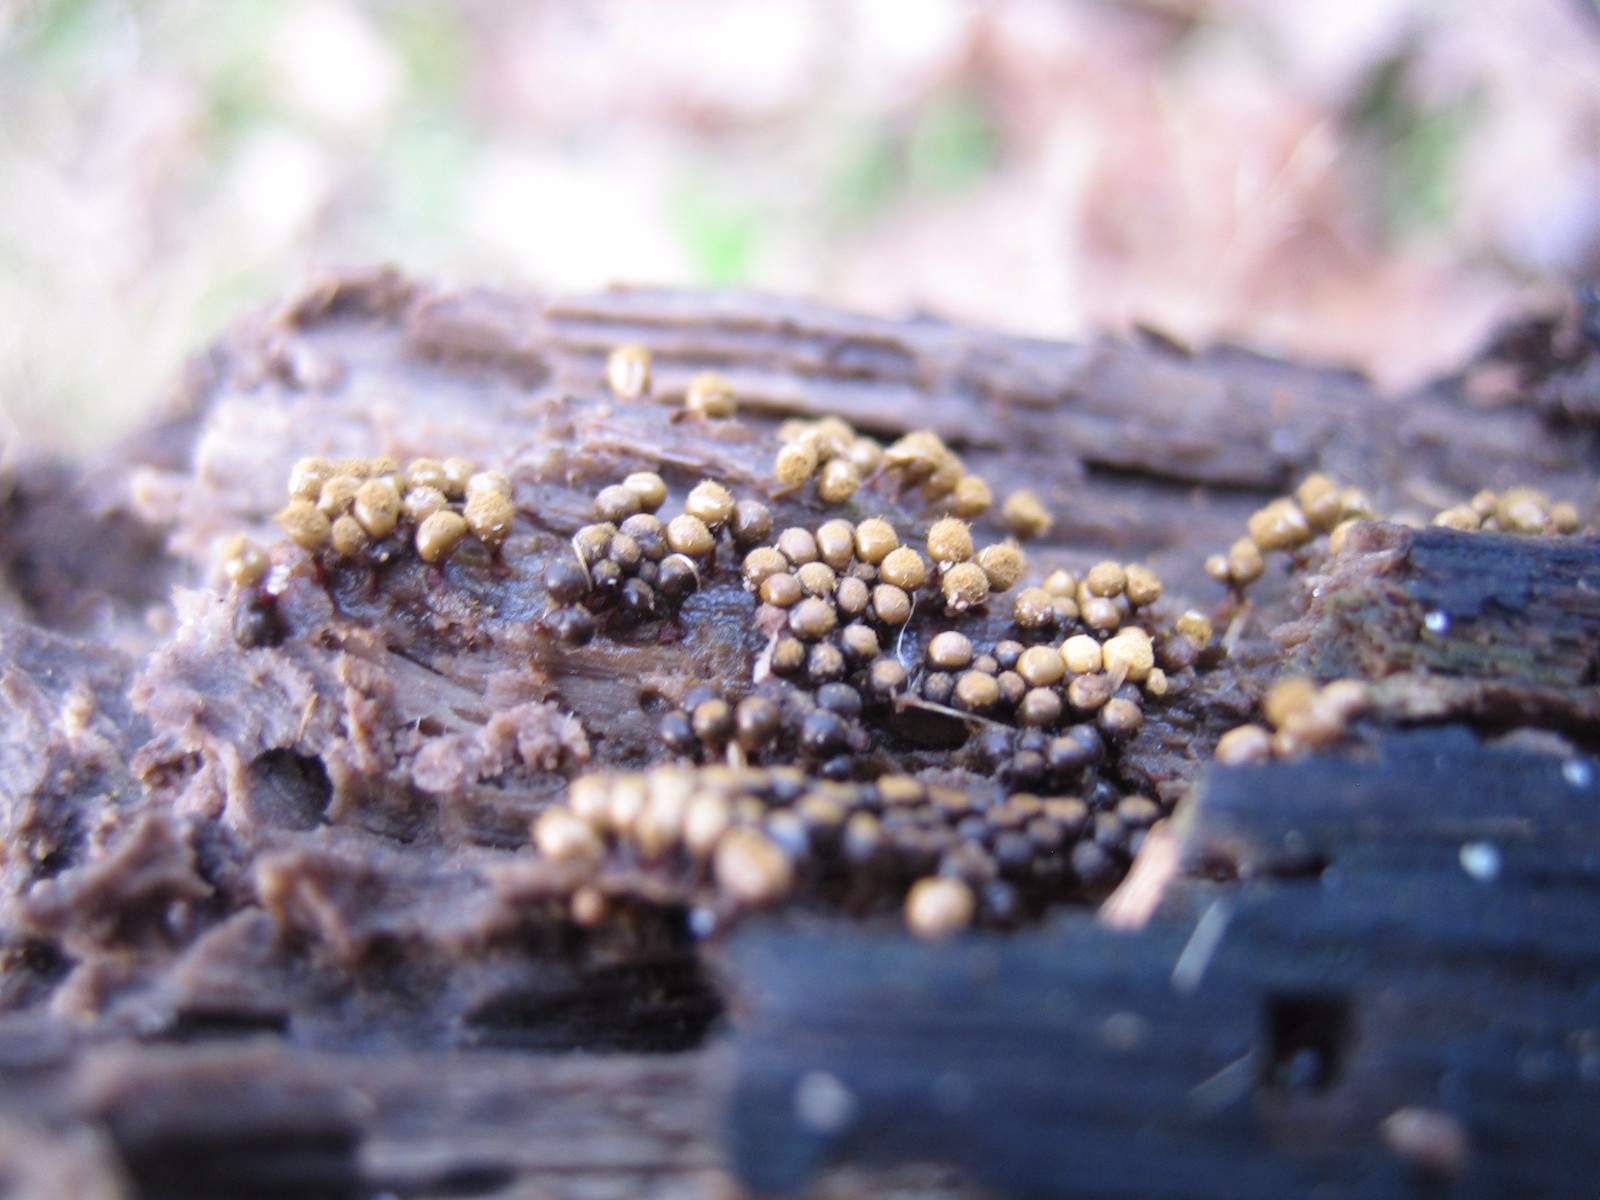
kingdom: Protozoa
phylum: Mycetozoa
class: Myxomycetes
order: Trichiales
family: Trichiaceae
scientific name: Trichiaceae
